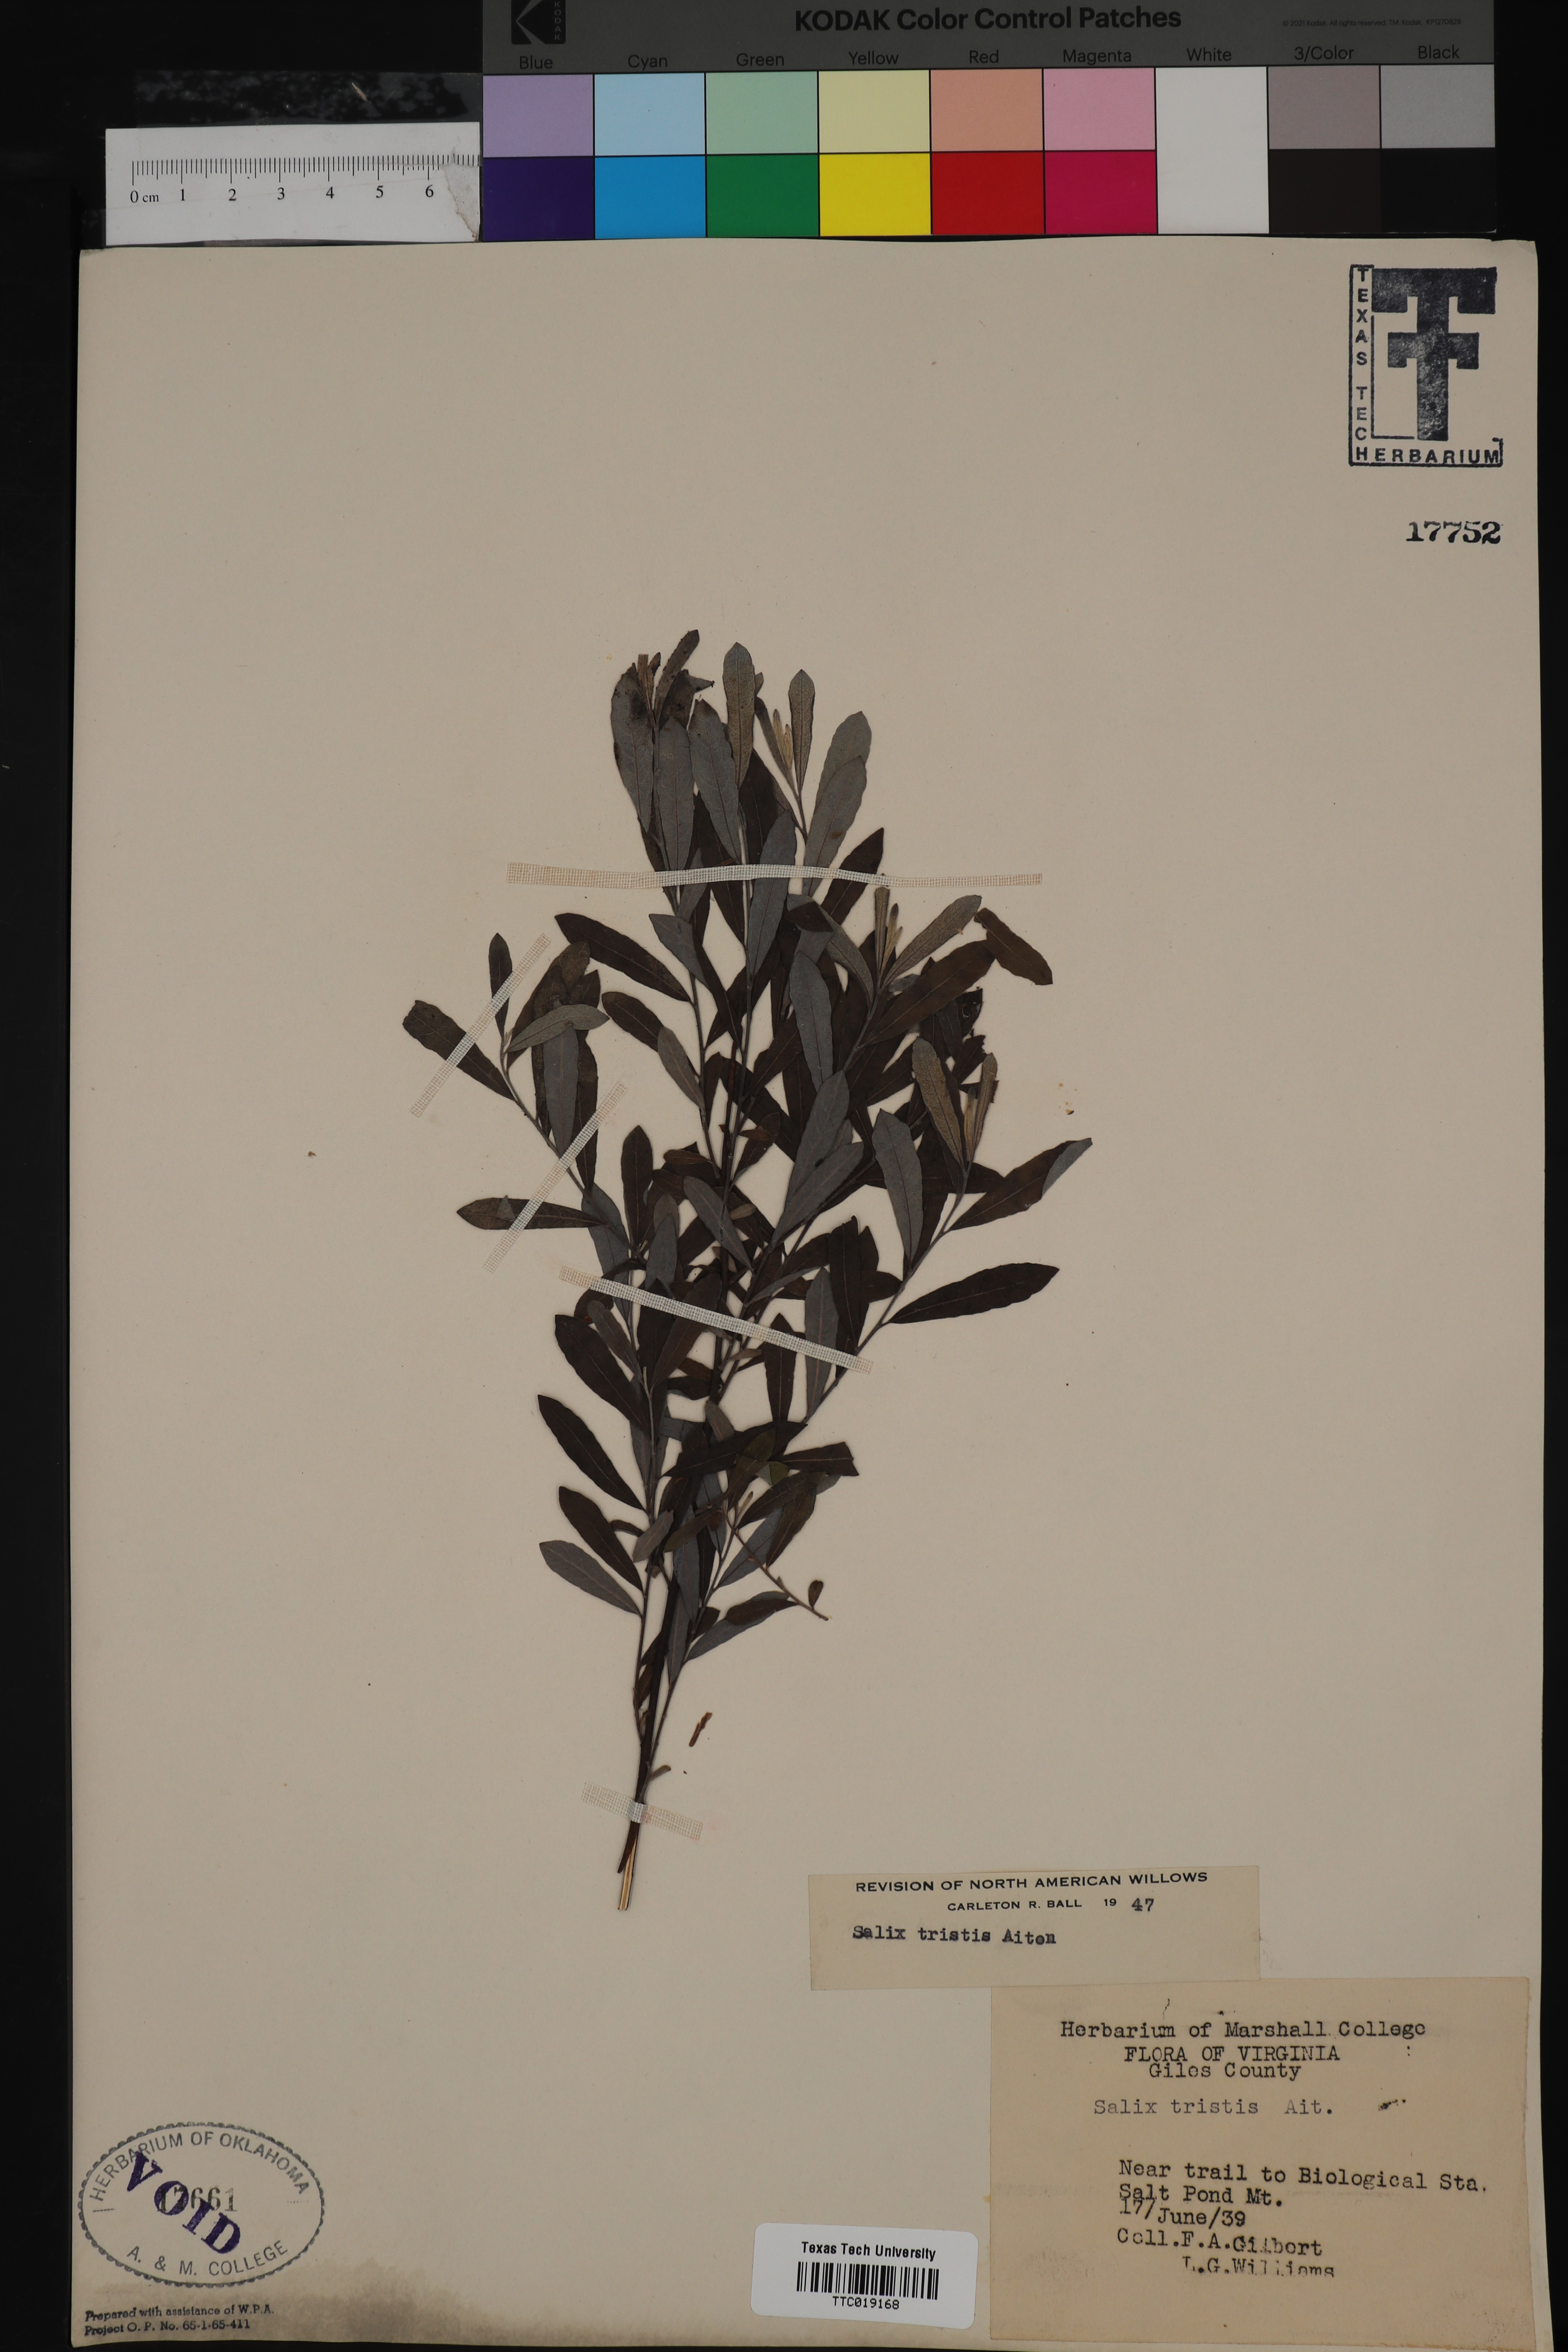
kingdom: Plantae
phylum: Tracheophyta
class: Magnoliopsida
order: Malpighiales
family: Salicaceae
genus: Salix
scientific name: Salix humilis
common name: Prairie willow
